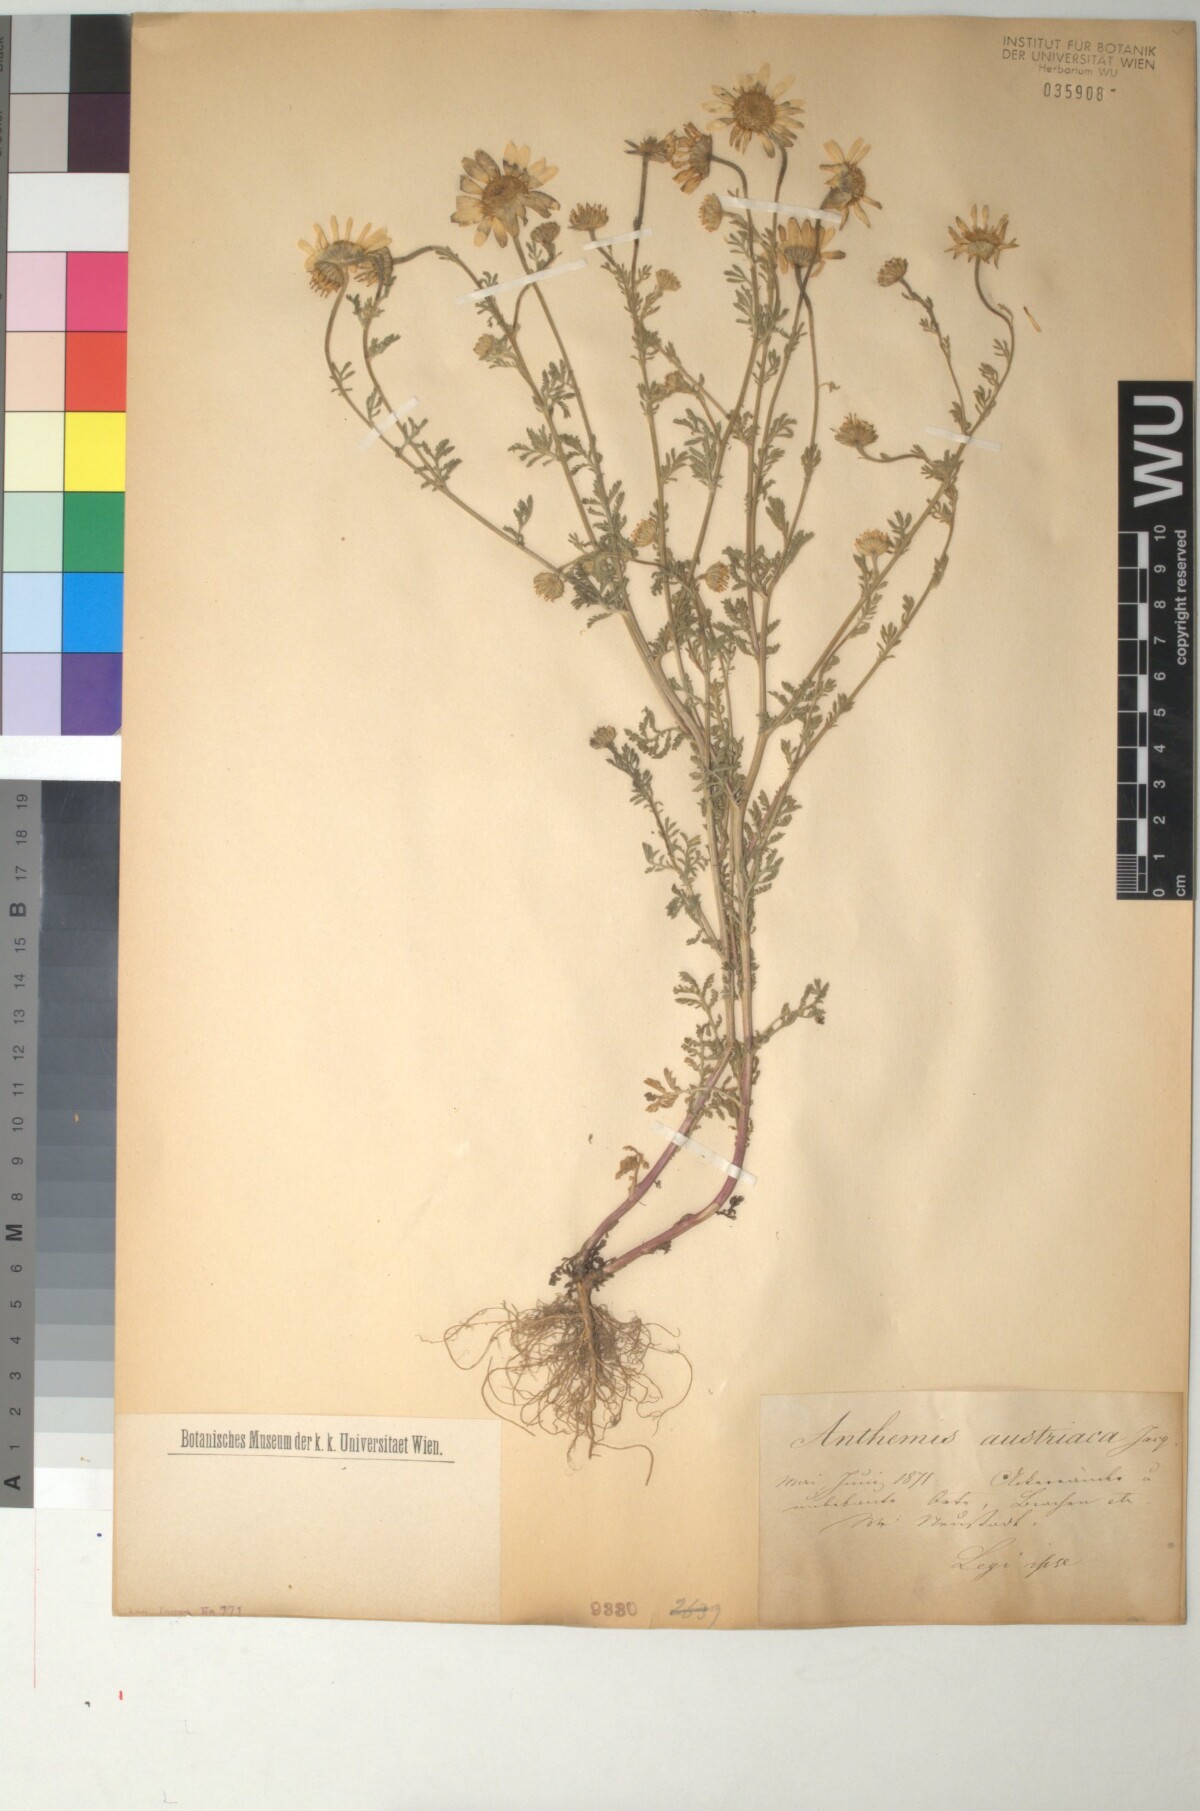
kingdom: Plantae
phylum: Tracheophyta
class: Magnoliopsida
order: Asterales
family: Asteraceae
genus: Cota
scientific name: Cota austriaca
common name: Austrian chamomile
